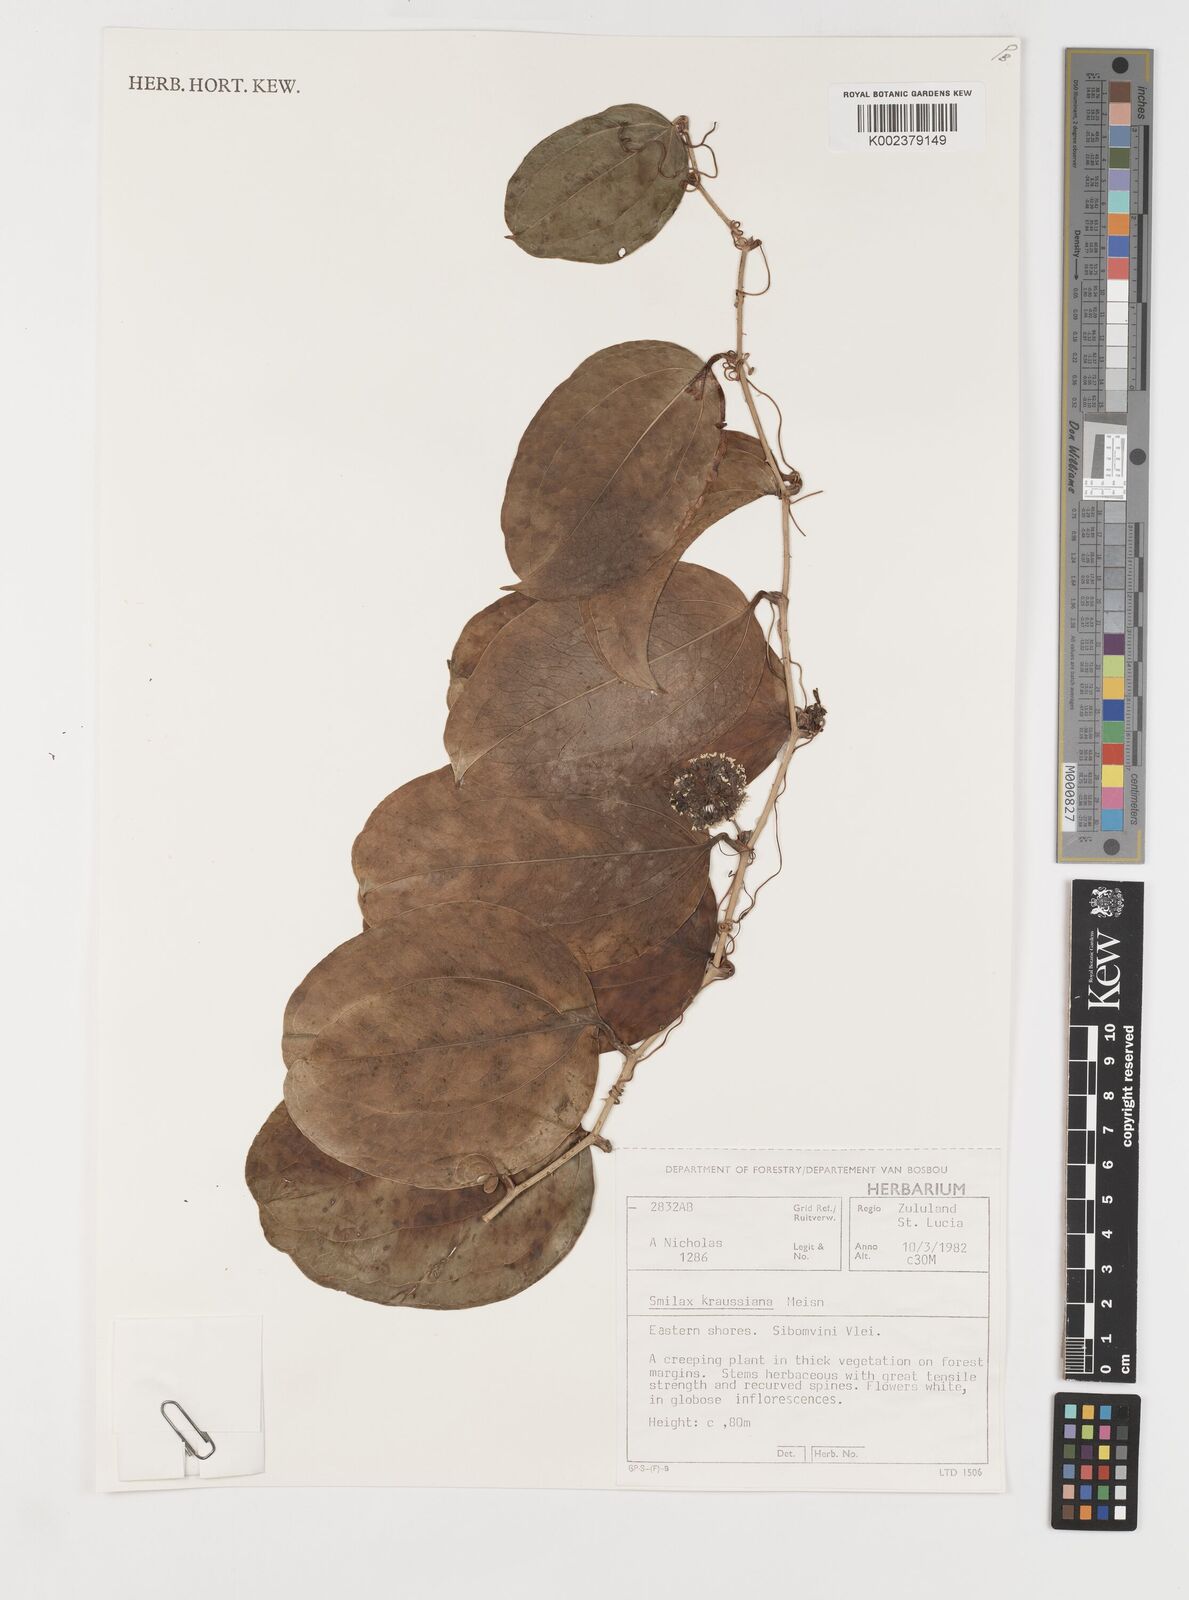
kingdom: Plantae
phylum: Tracheophyta
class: Liliopsida
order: Liliales
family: Smilacaceae
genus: Smilax
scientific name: Smilax anceps
